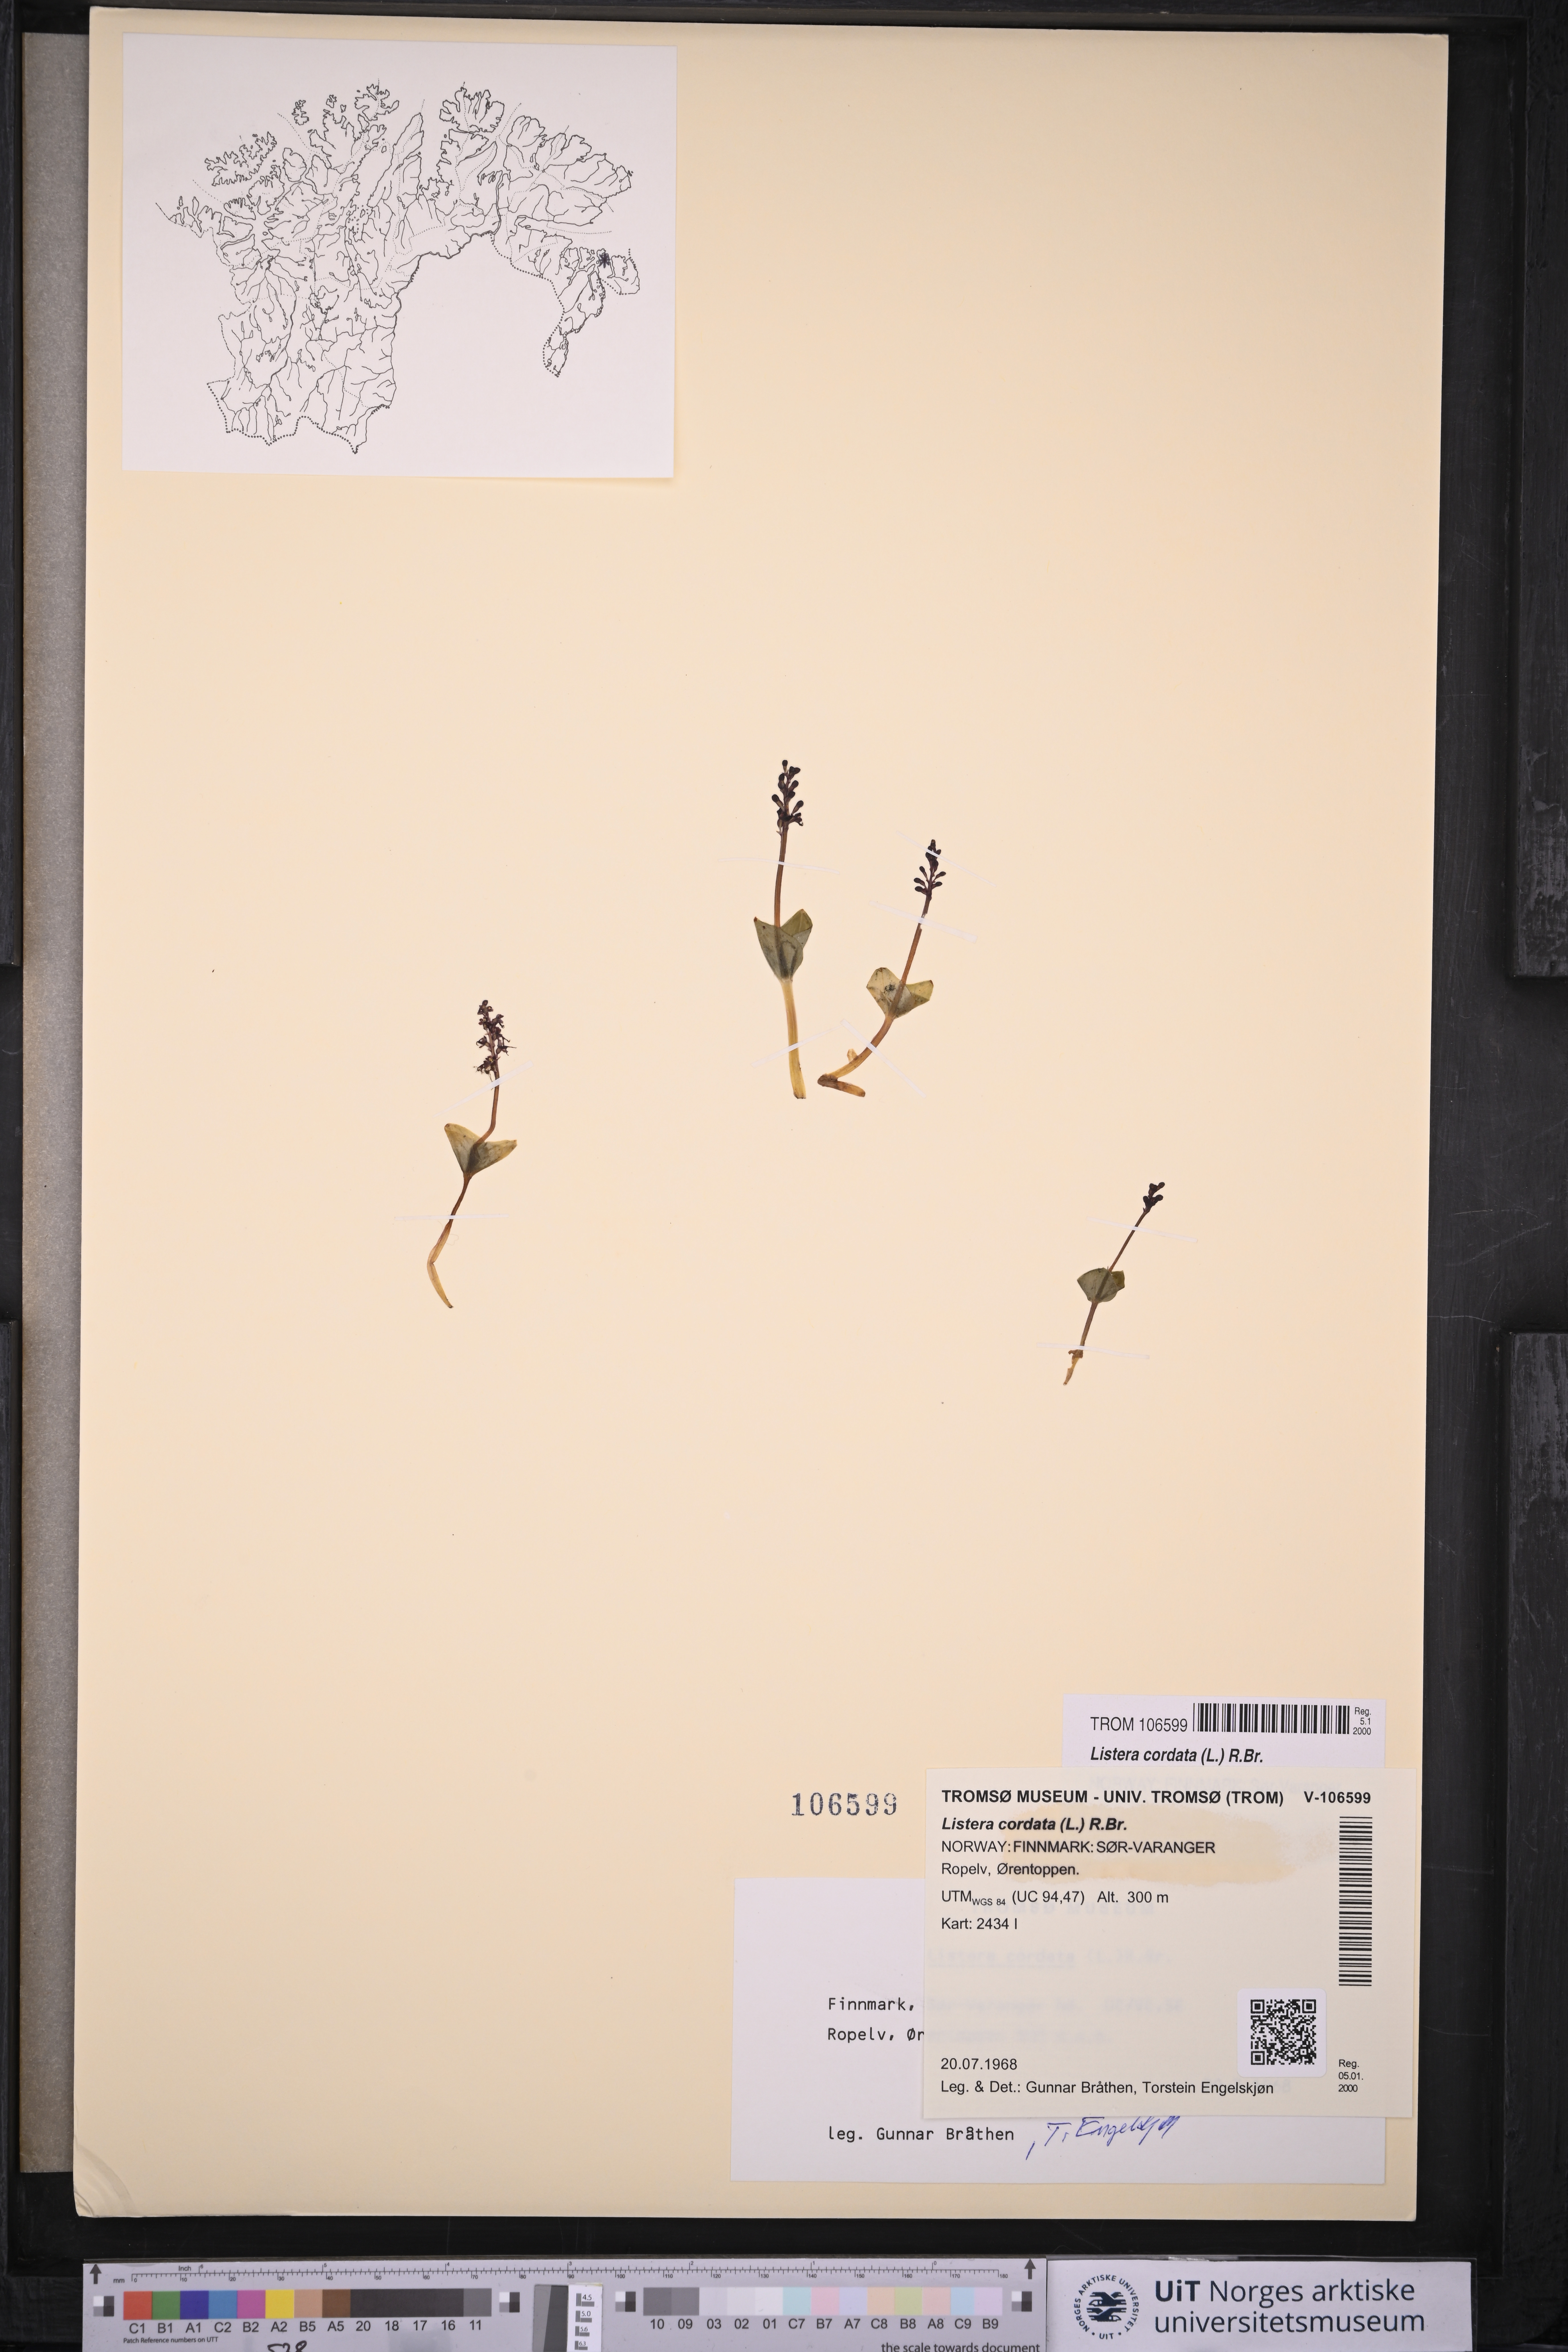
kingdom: Plantae
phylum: Tracheophyta
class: Liliopsida
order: Asparagales
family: Orchidaceae
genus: Neottia
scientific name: Neottia cordata
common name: Lesser twayblade
